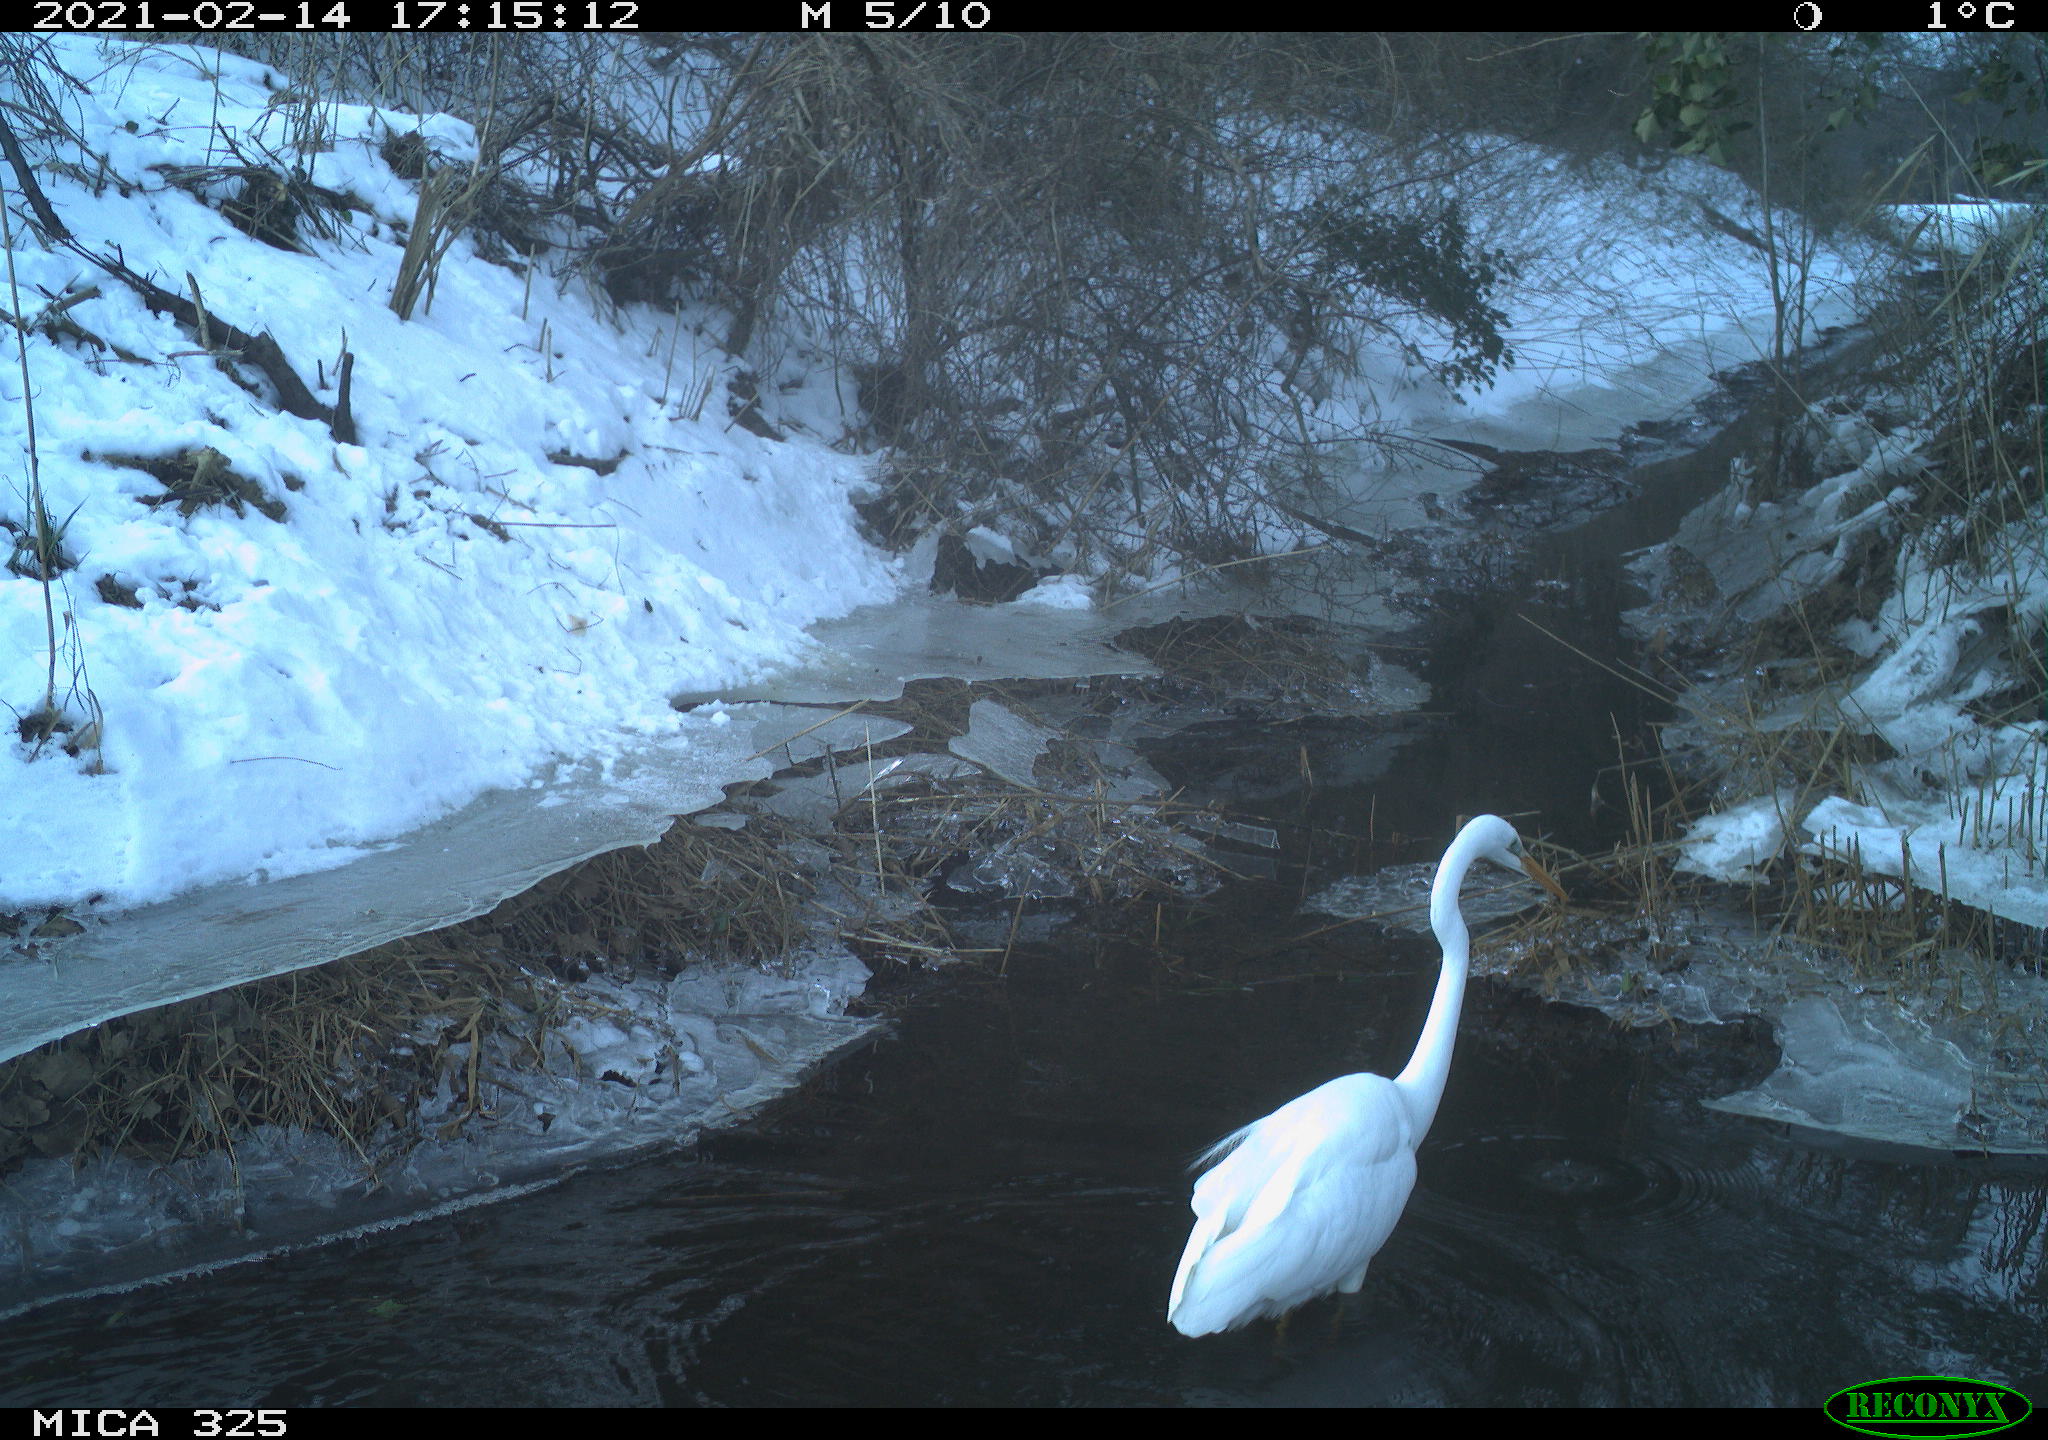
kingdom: Animalia
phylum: Chordata
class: Aves
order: Pelecaniformes
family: Ardeidae
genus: Ardea
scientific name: Ardea alba
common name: Great egret
